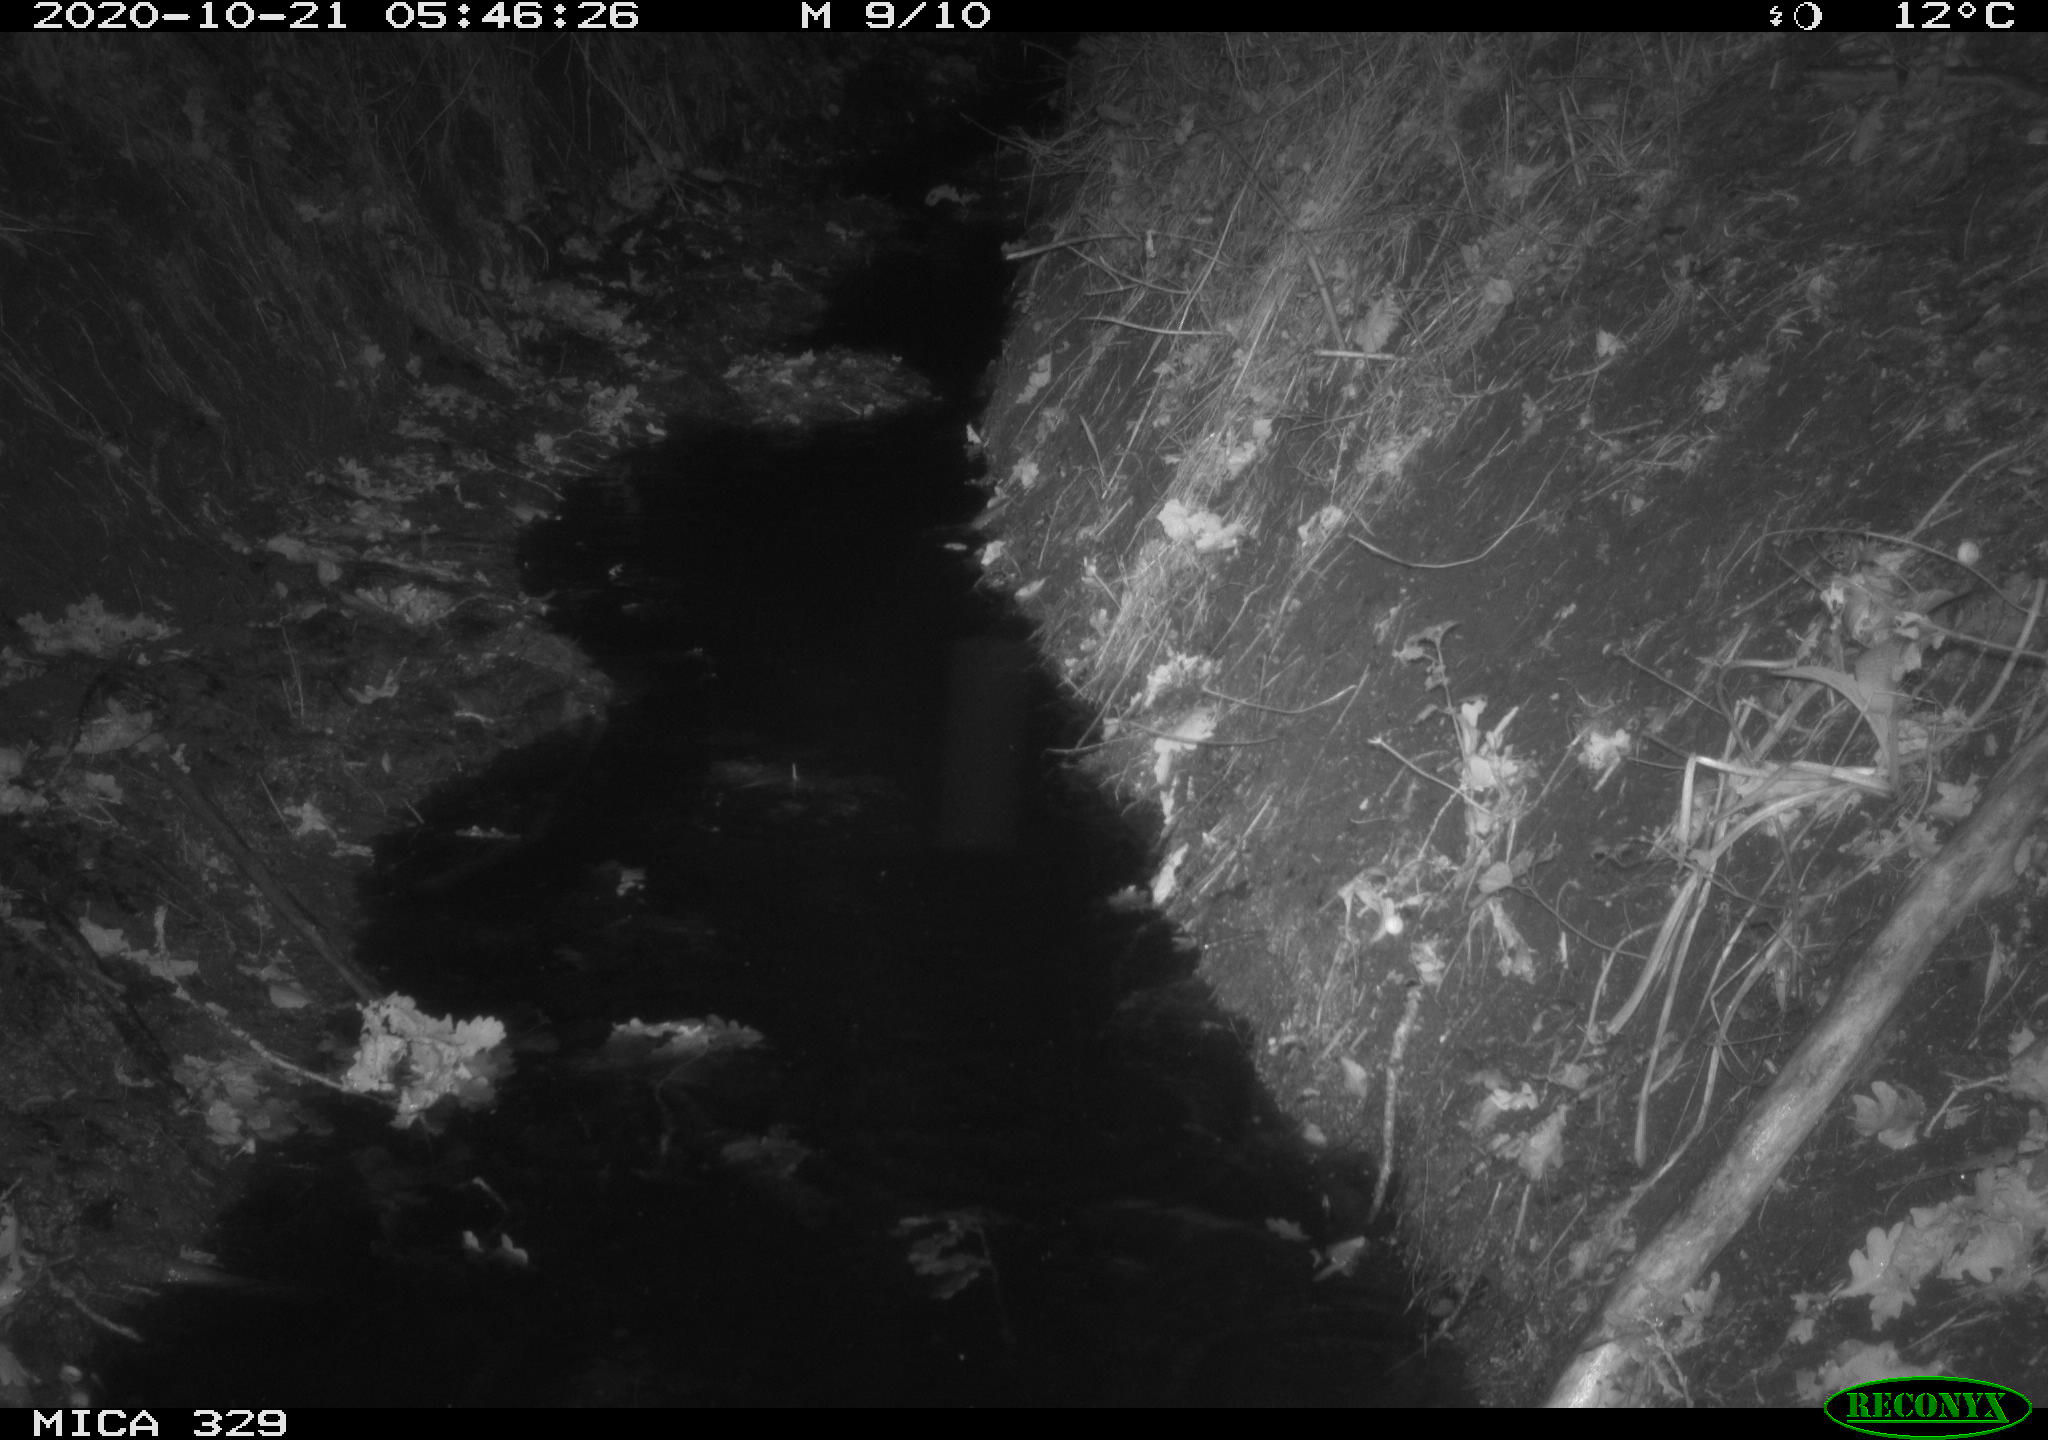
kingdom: Animalia
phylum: Chordata
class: Mammalia
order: Rodentia
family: Muridae
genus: Rattus
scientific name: Rattus norvegicus
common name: Brown rat
